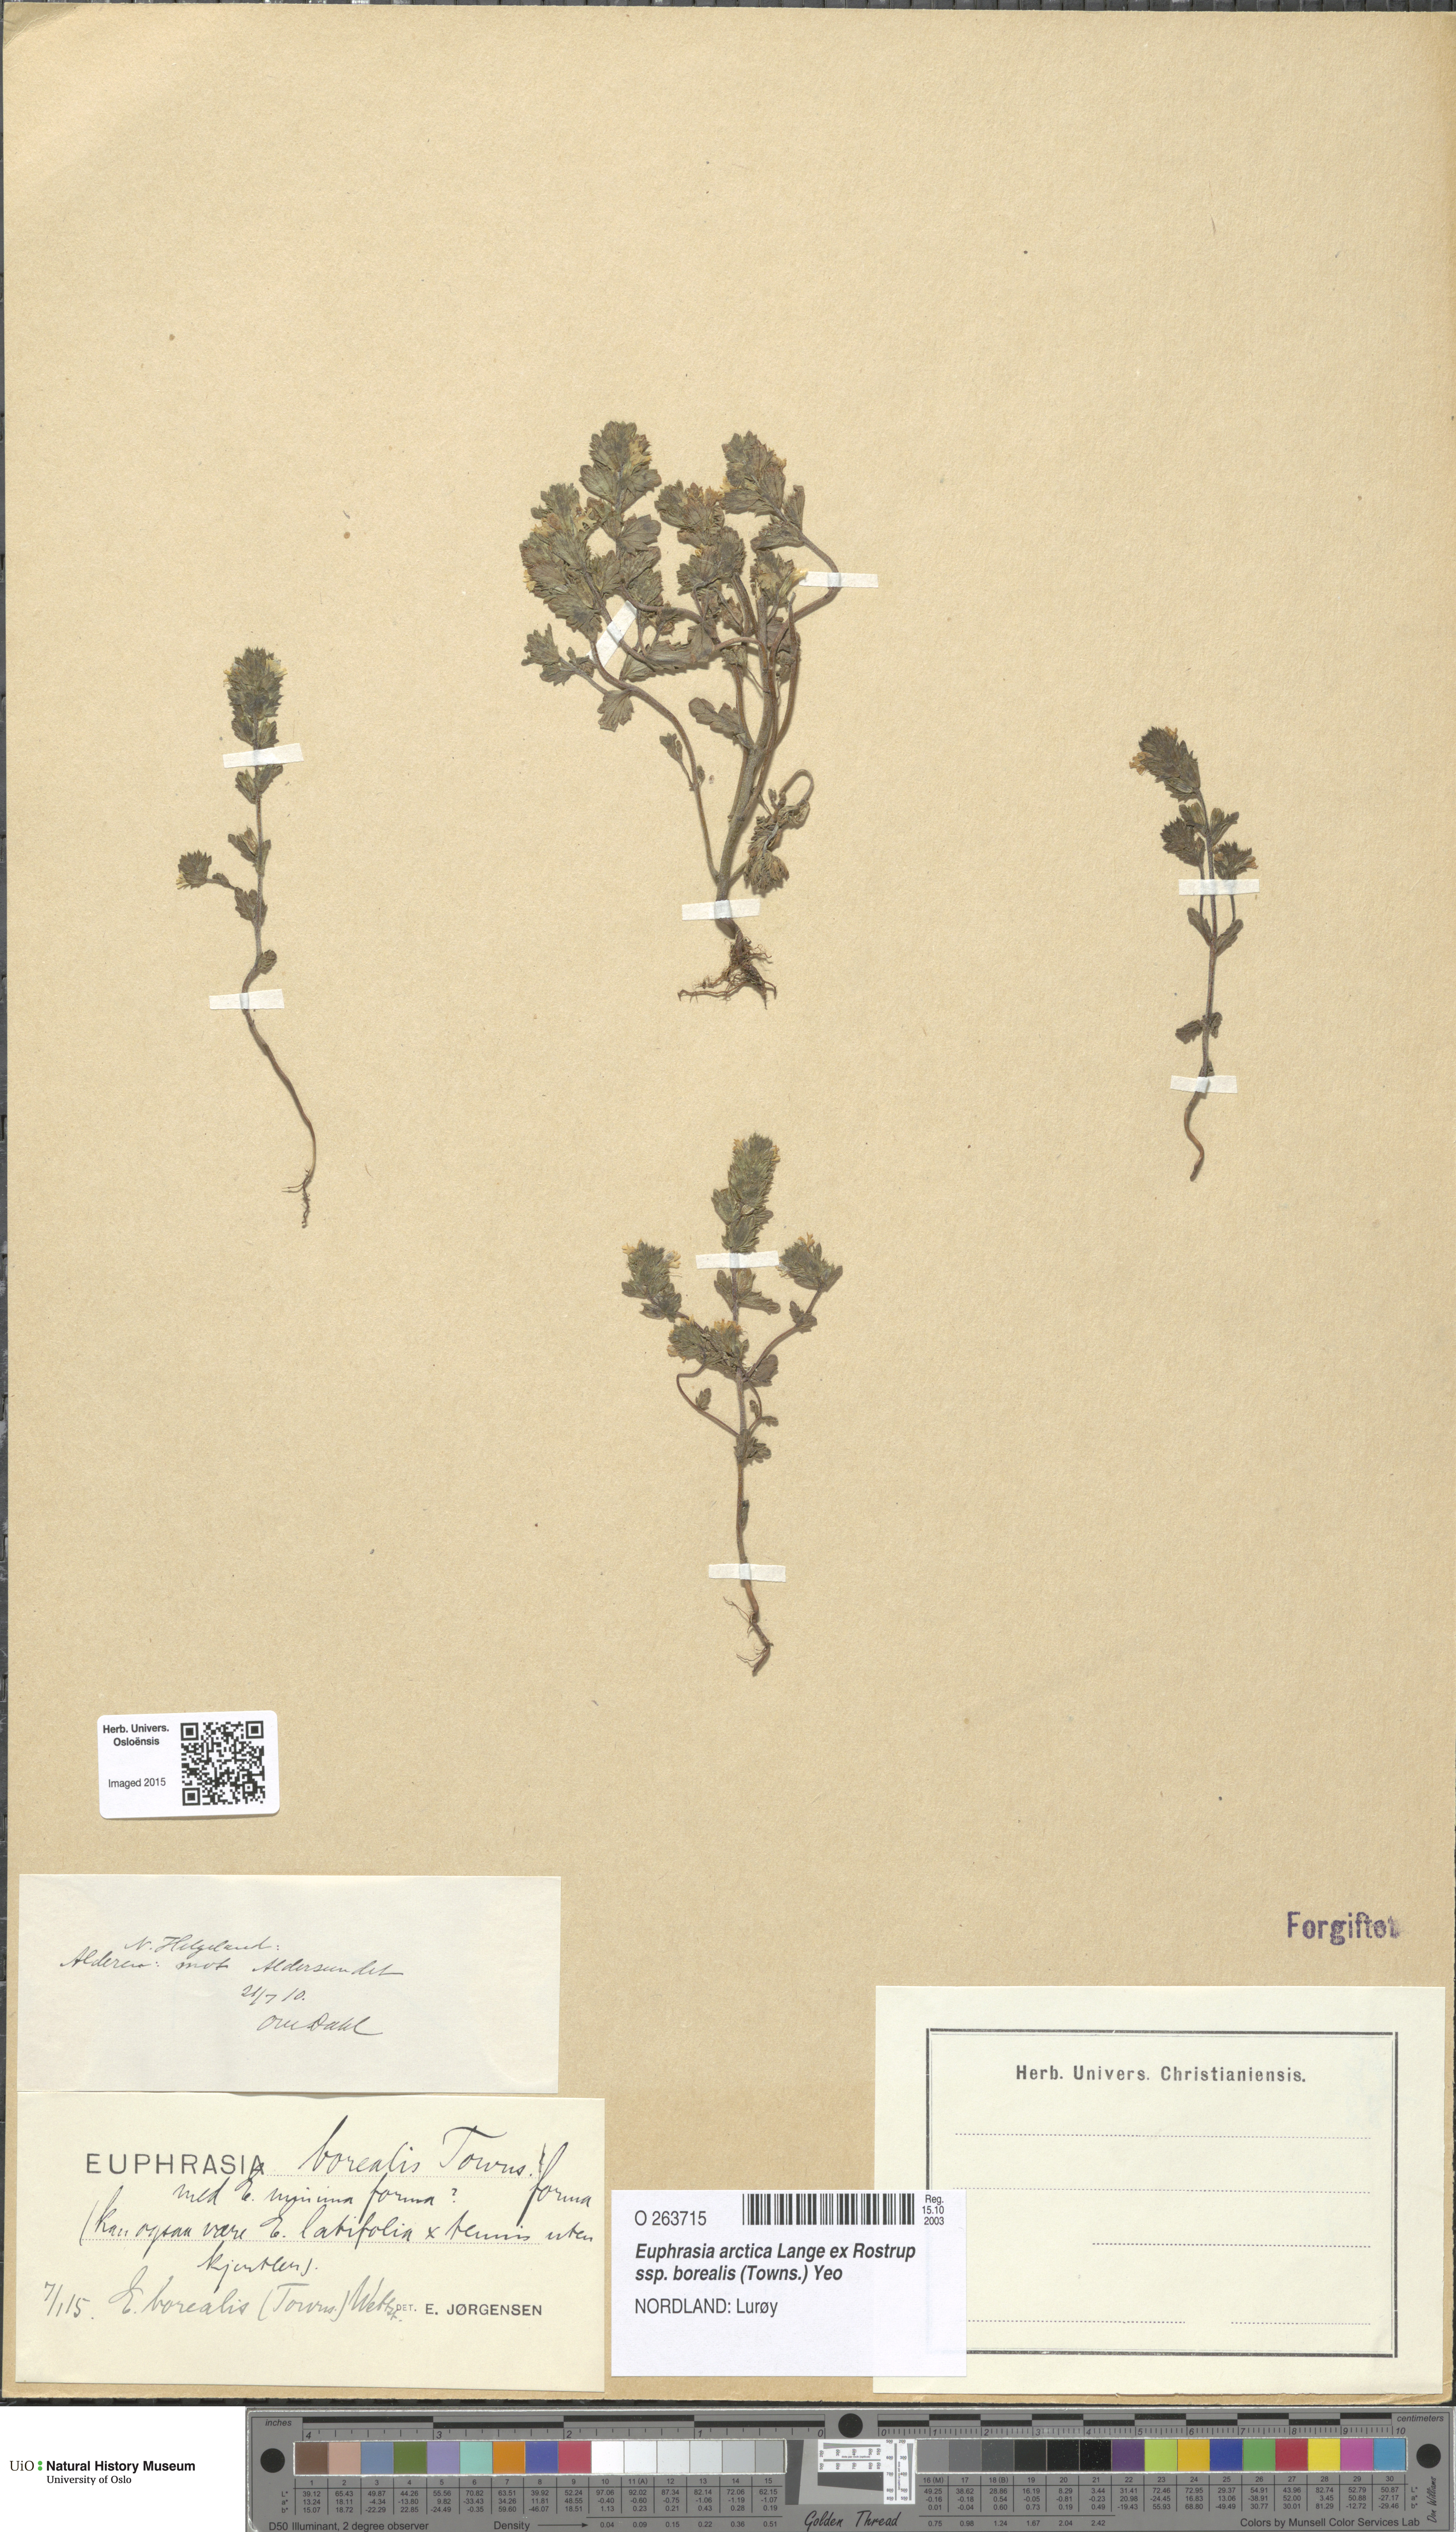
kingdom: Plantae
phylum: Tracheophyta
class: Magnoliopsida
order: Lamiales
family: Orobanchaceae
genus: Euphrasia
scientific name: Euphrasia arctica
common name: An eyebright
